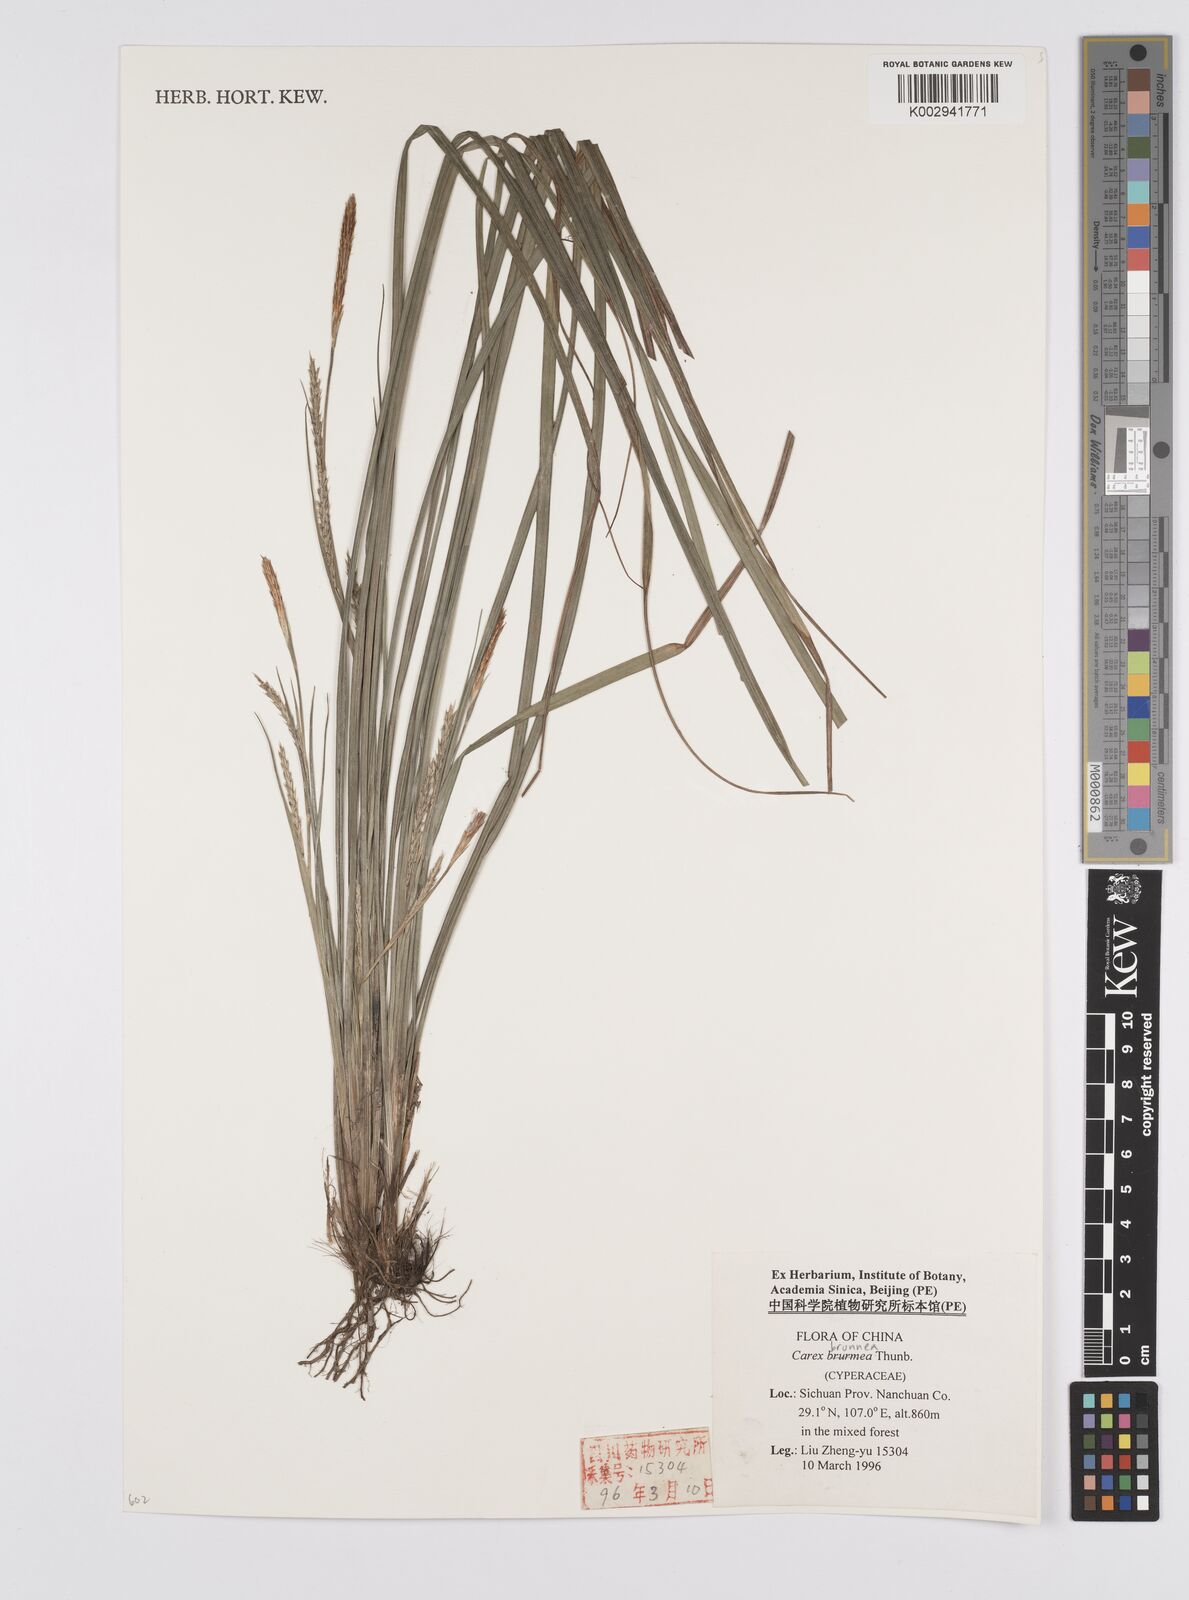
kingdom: Plantae
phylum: Tracheophyta
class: Liliopsida
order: Poales
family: Cyperaceae
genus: Carex
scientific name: Carex brunnea
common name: Greater brown sedge
